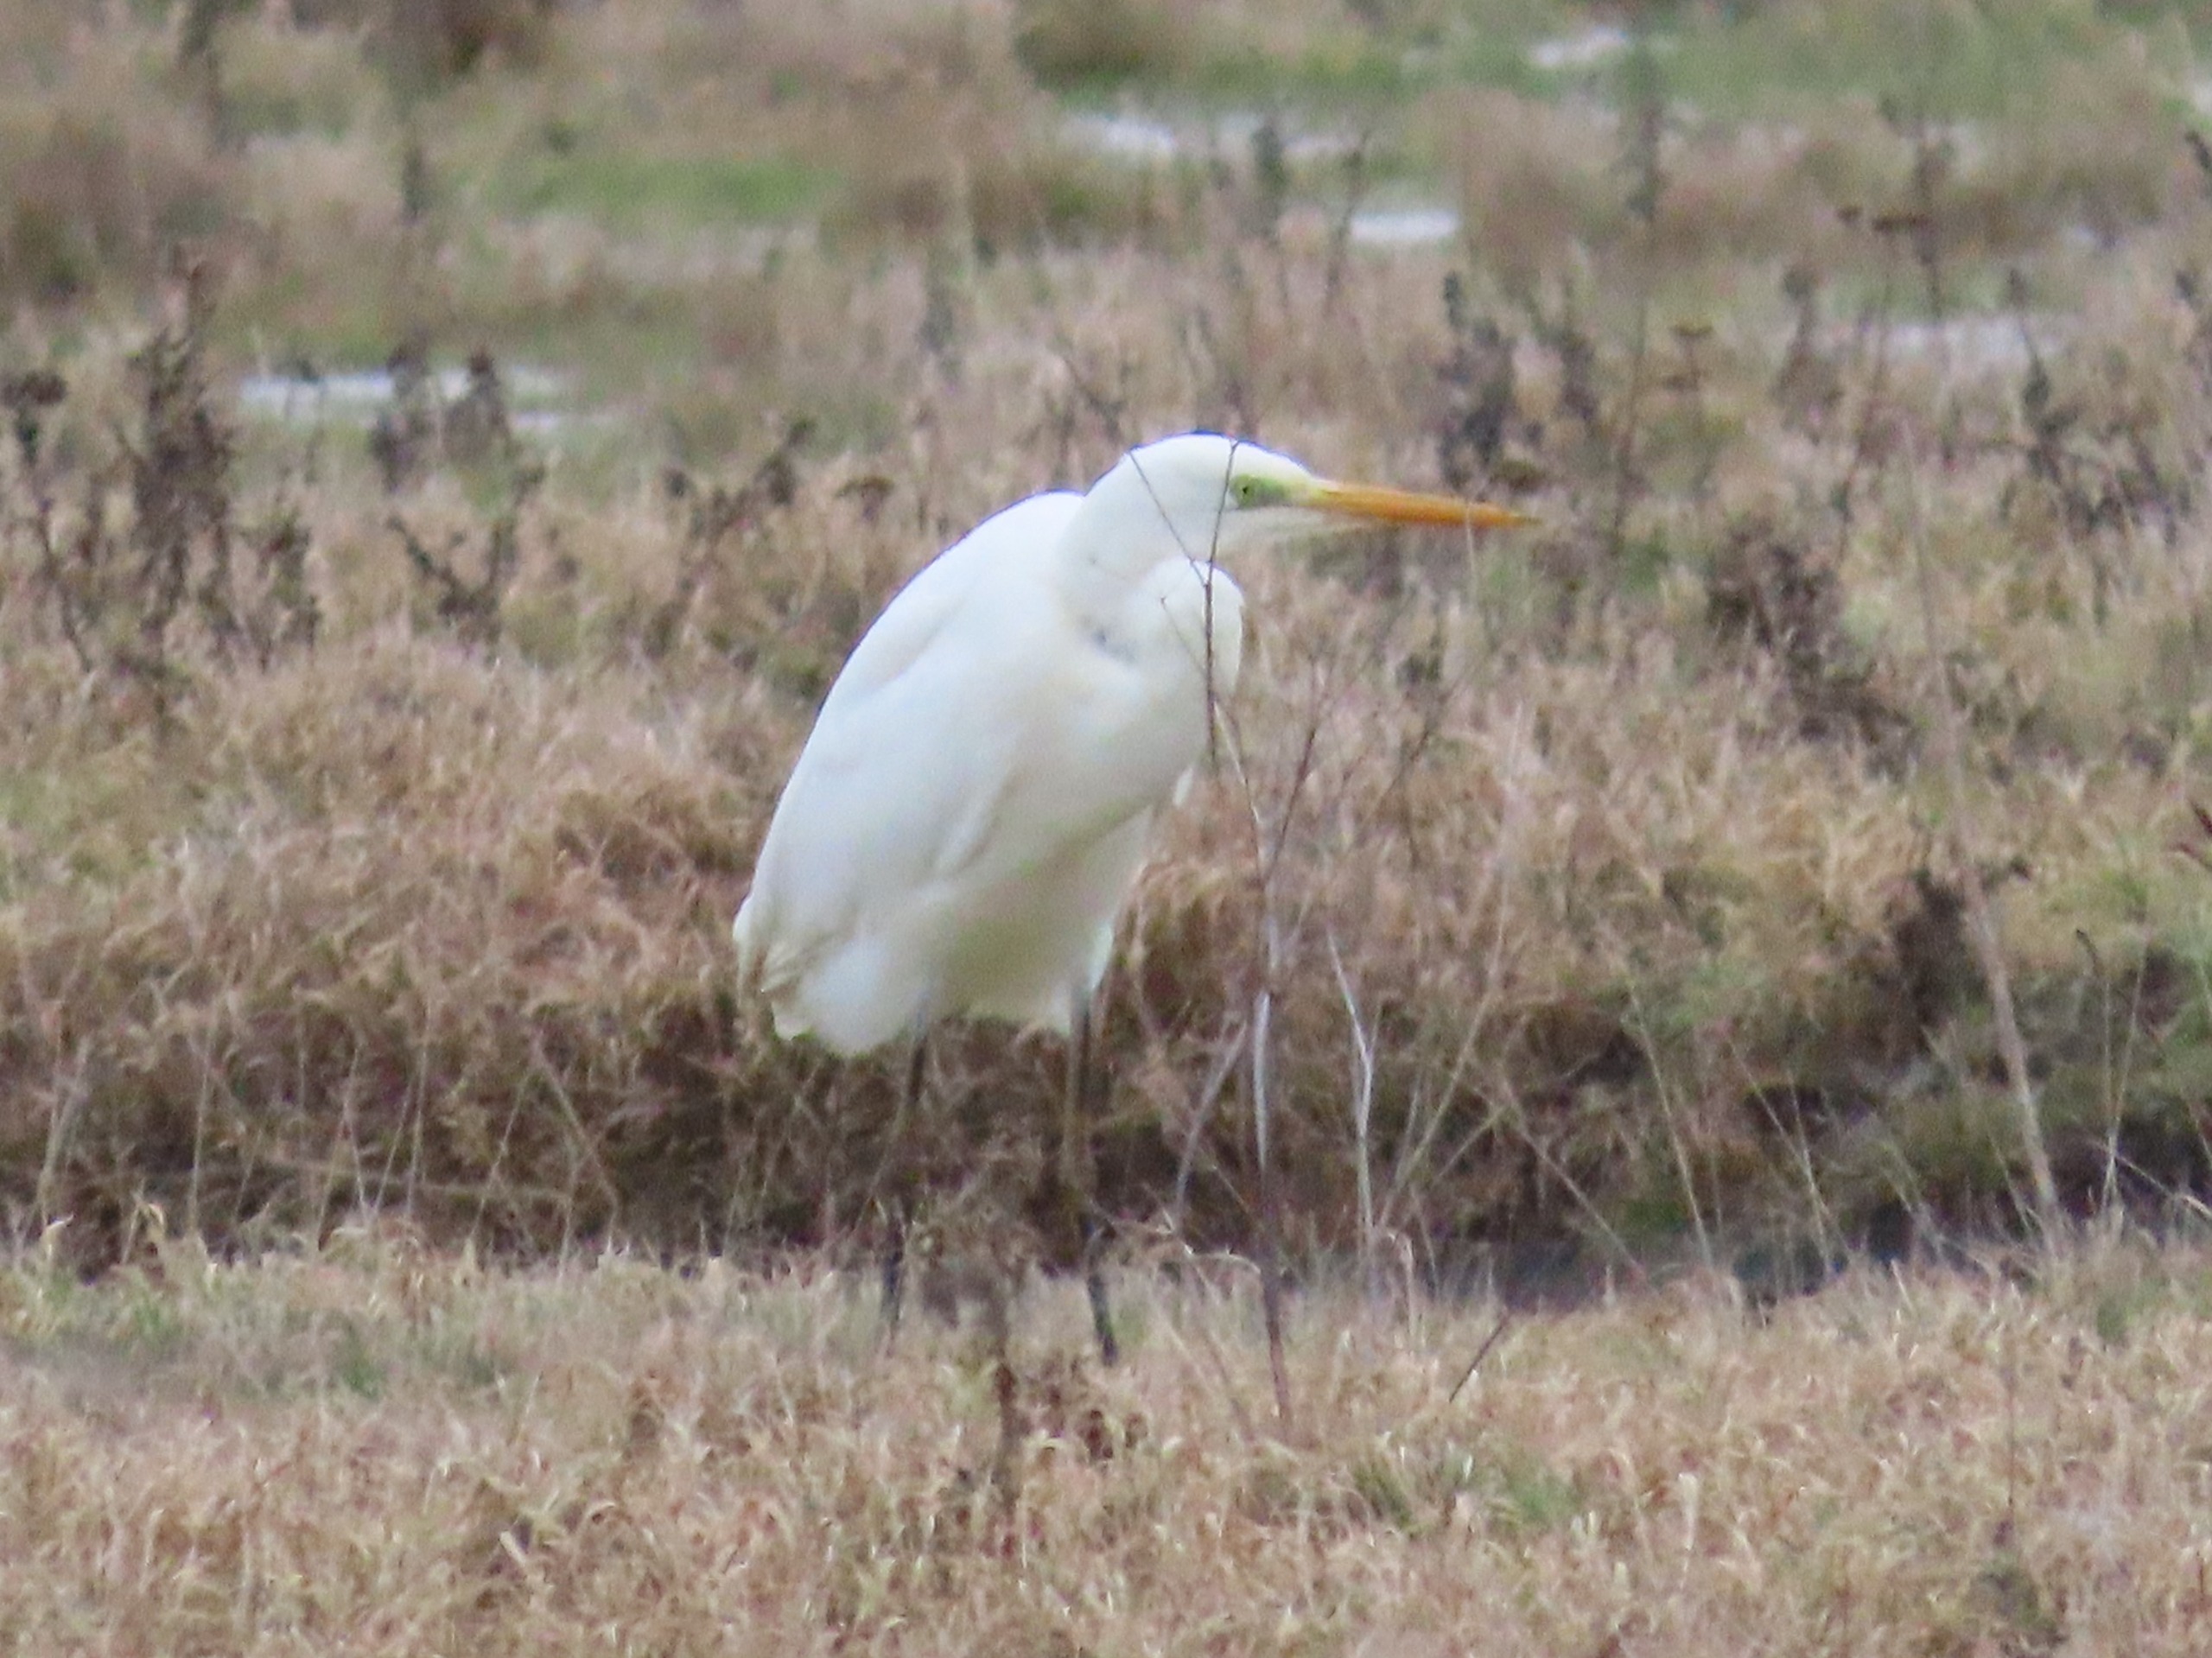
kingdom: Animalia
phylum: Chordata
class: Aves
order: Pelecaniformes
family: Ardeidae
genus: Ardea
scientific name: Ardea alba
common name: Sølvhejre
